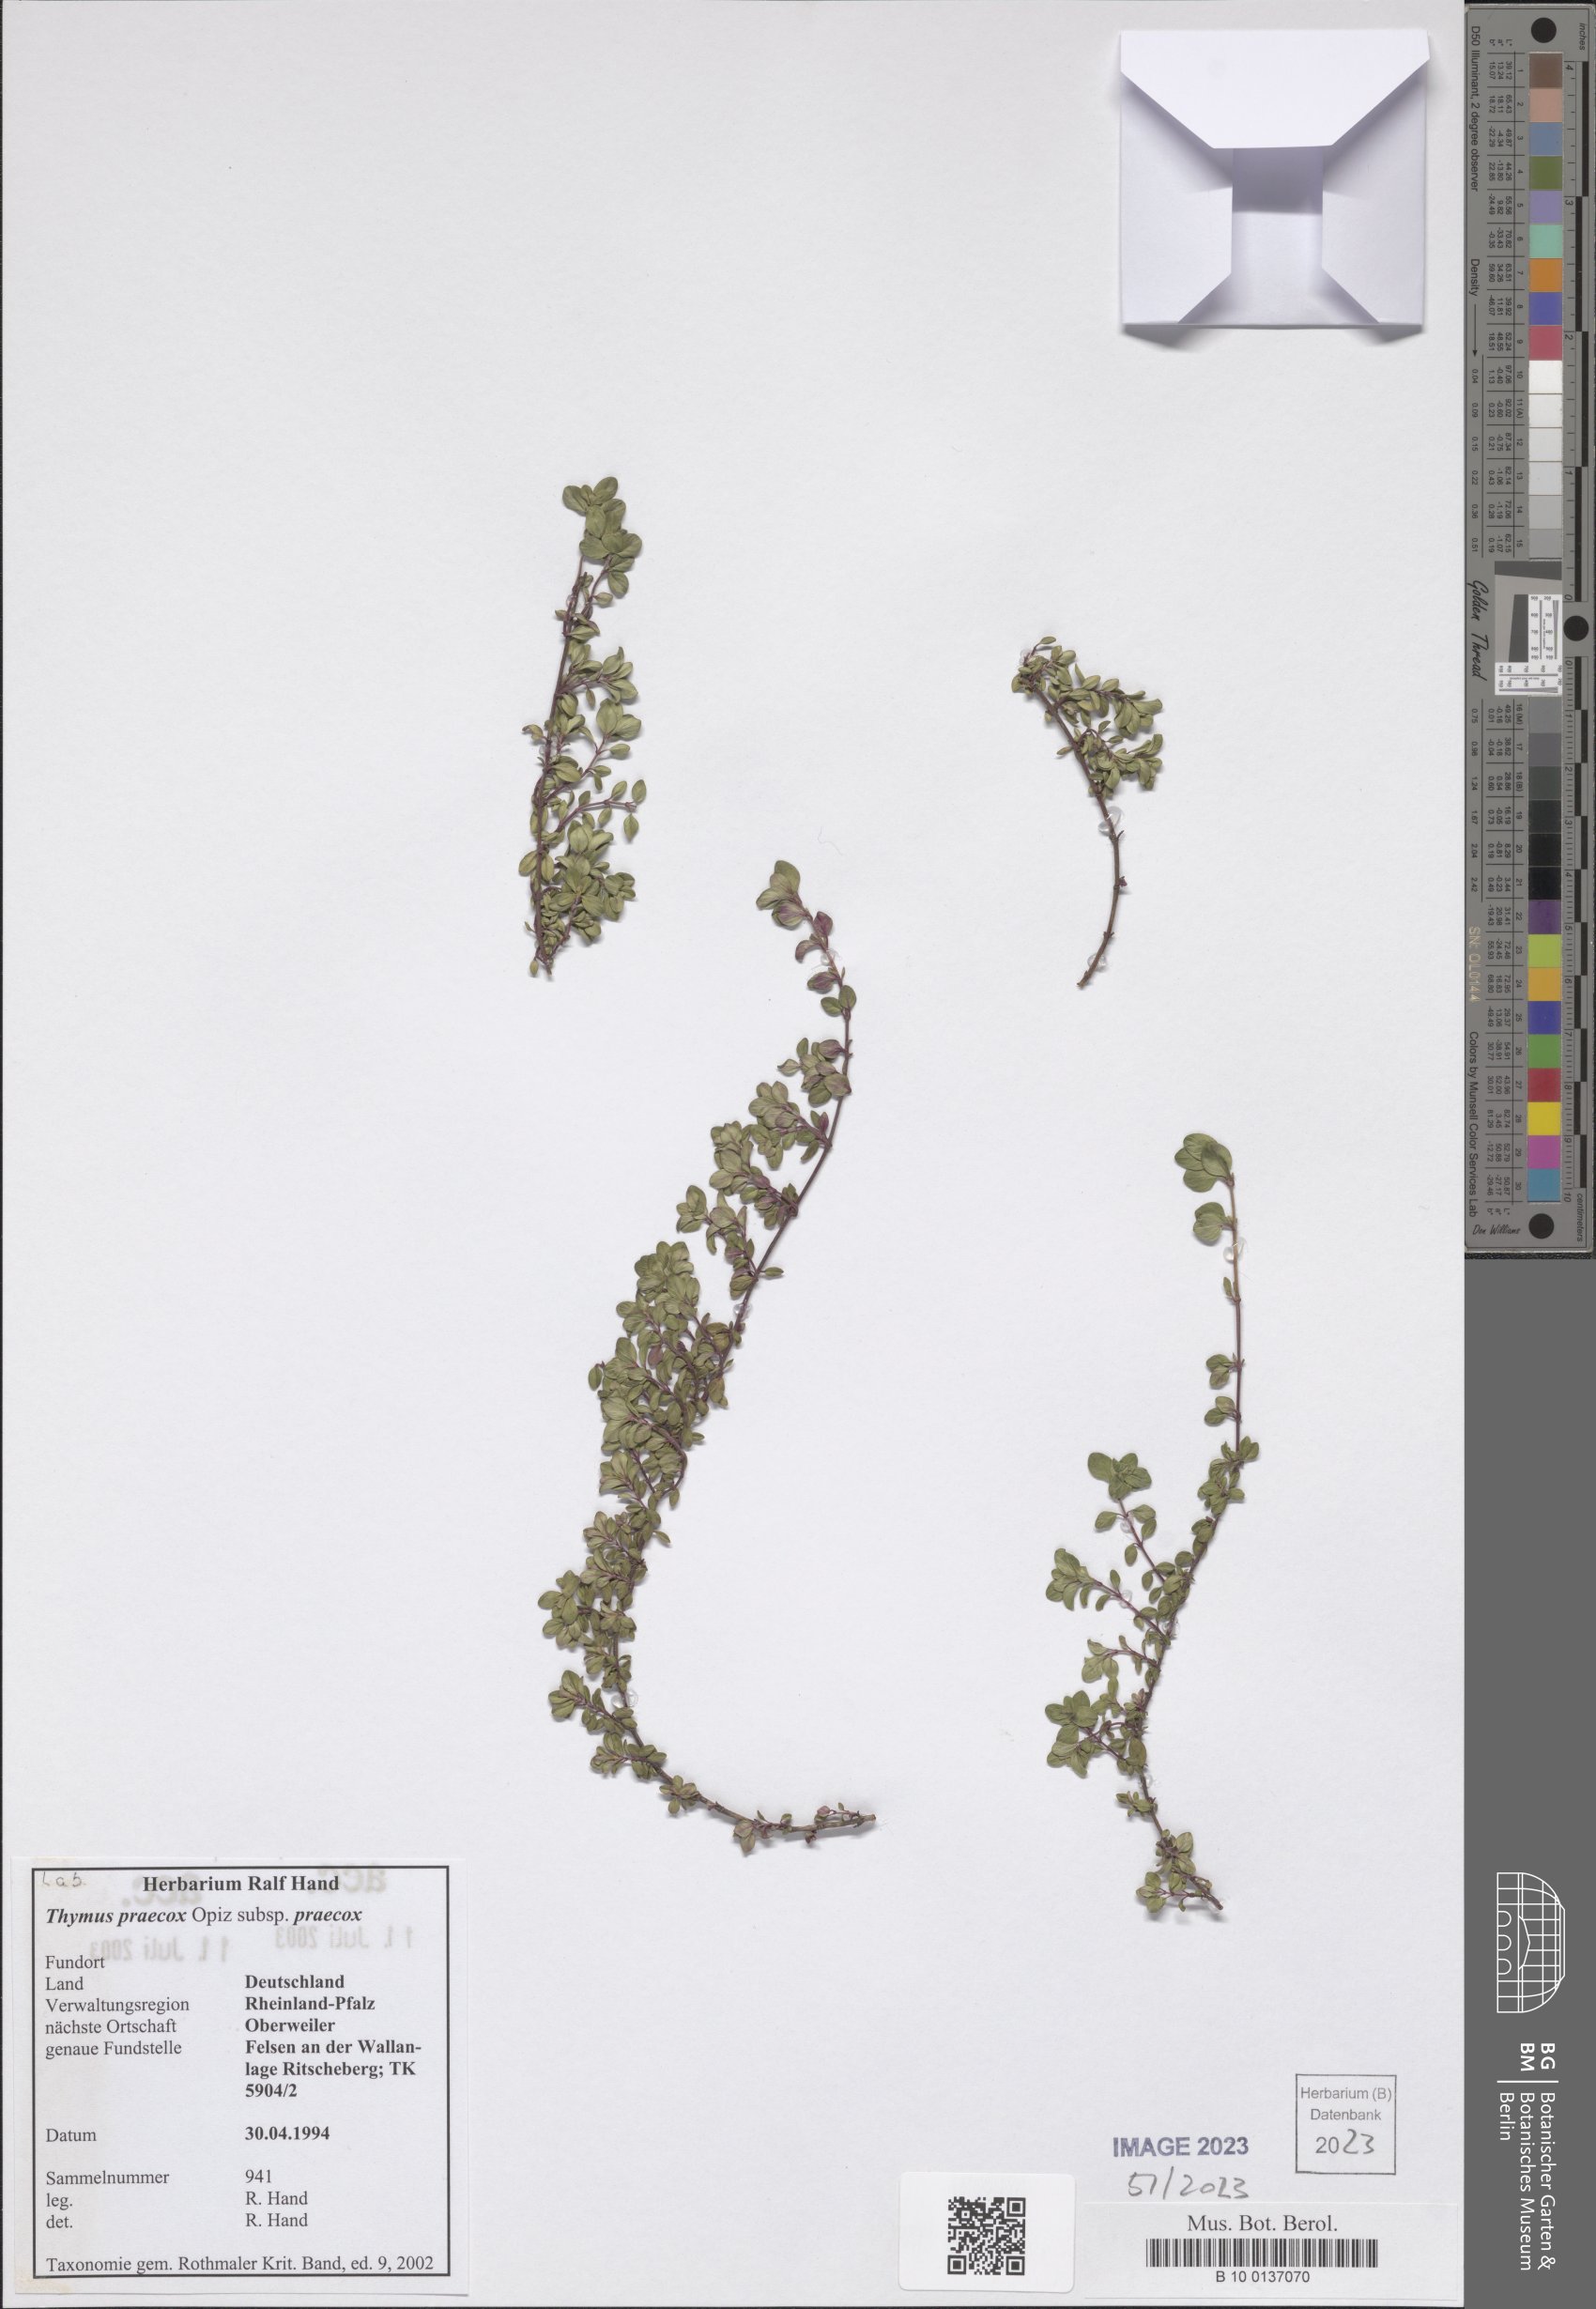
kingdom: Plantae
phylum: Tracheophyta
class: Magnoliopsida
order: Lamiales
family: Lamiaceae
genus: Thymus
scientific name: Thymus praecox
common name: Wild thyme
